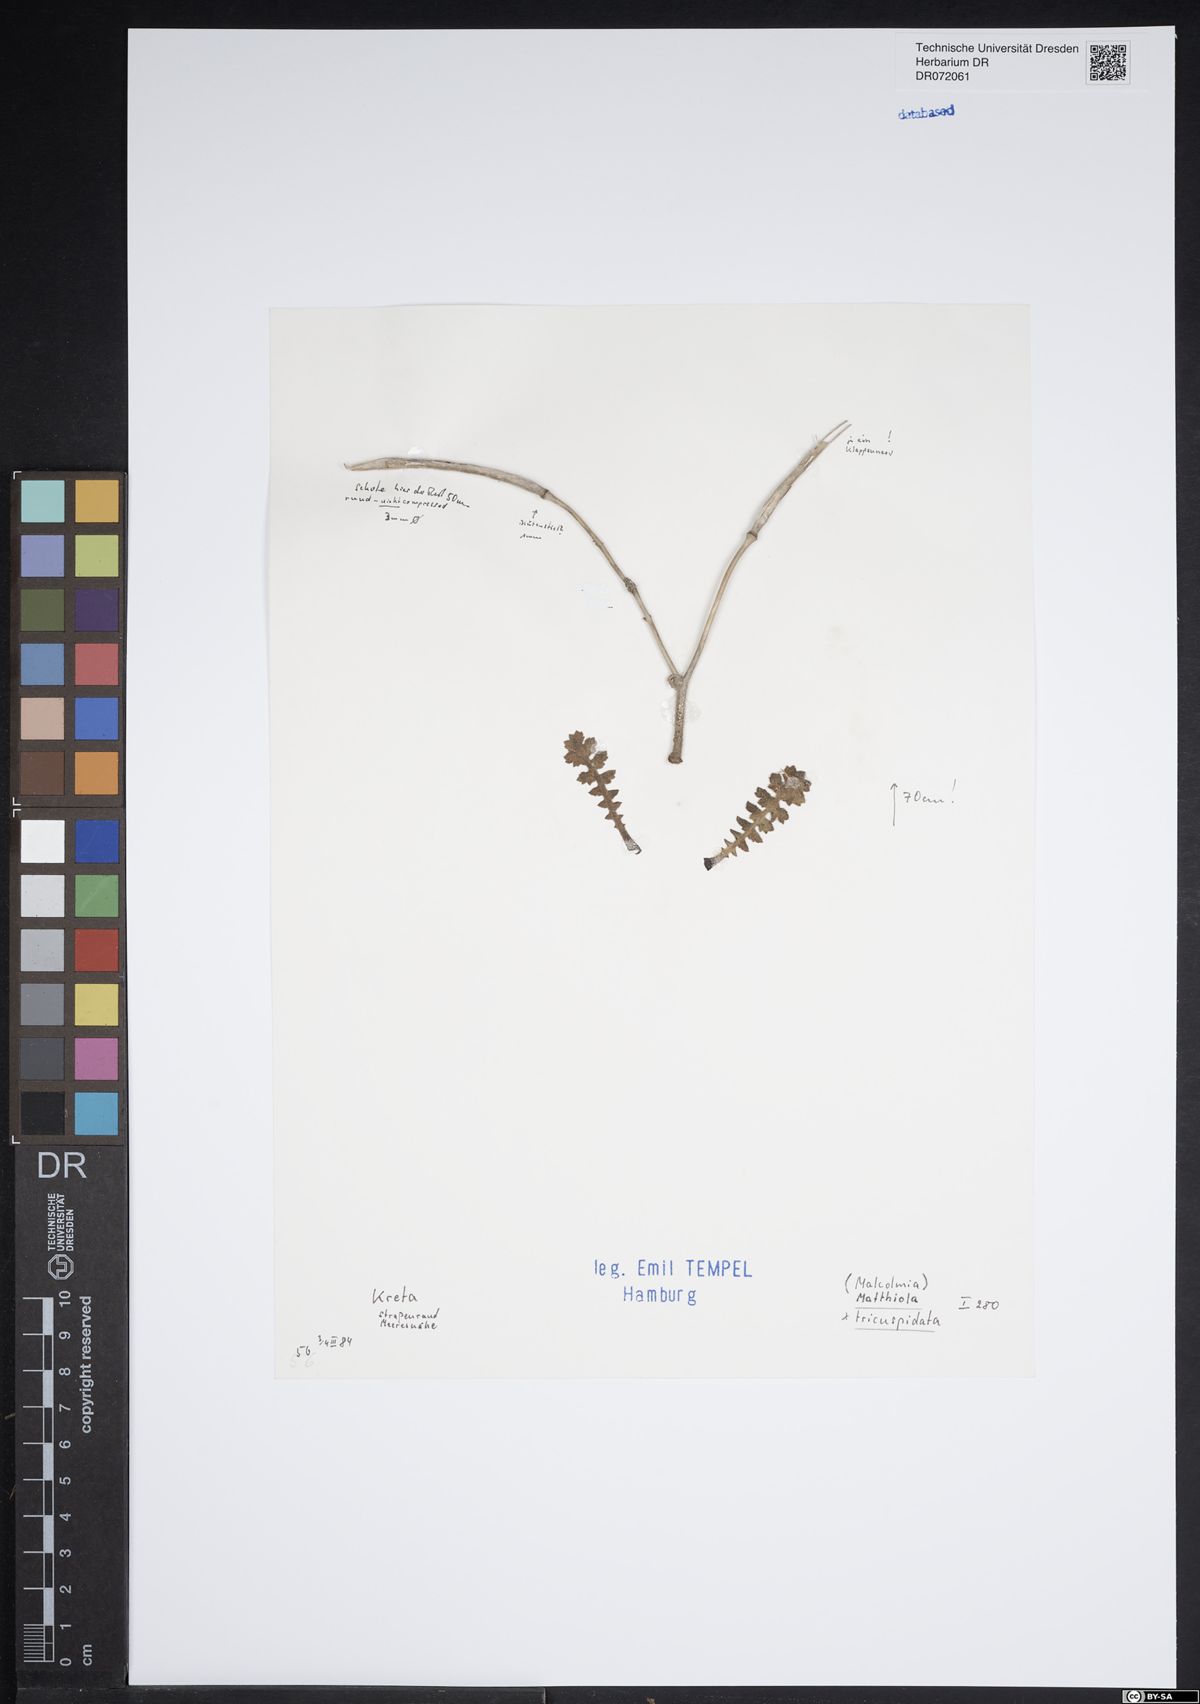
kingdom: Plantae
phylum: Tracheophyta
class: Magnoliopsida
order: Brassicales
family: Brassicaceae
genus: Matthiola
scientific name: Matthiola tricuspidata
